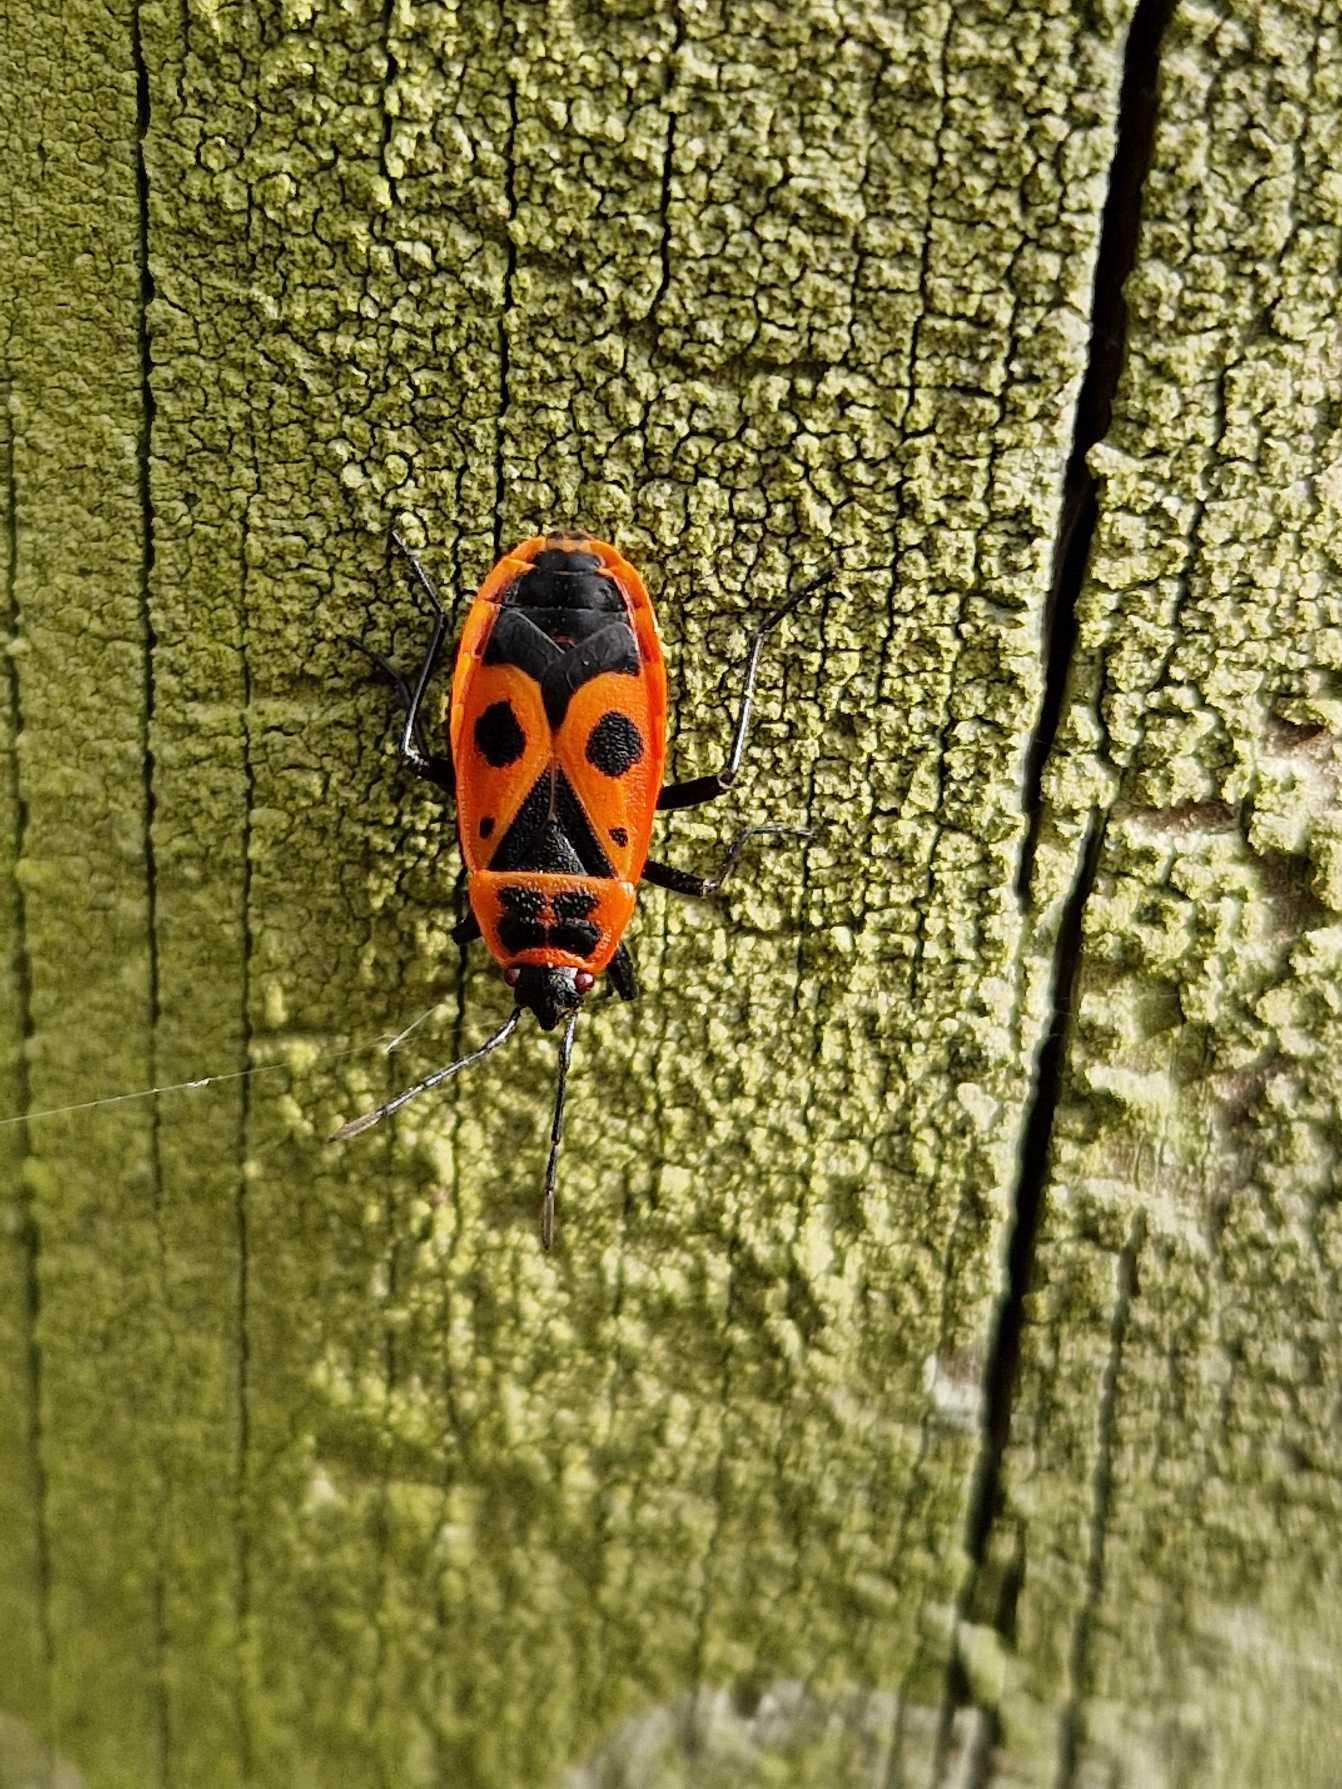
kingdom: Animalia
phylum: Arthropoda
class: Insecta
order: Hemiptera
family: Pyrrhocoridae
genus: Pyrrhocoris
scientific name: Pyrrhocoris apterus
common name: Ildtæge
